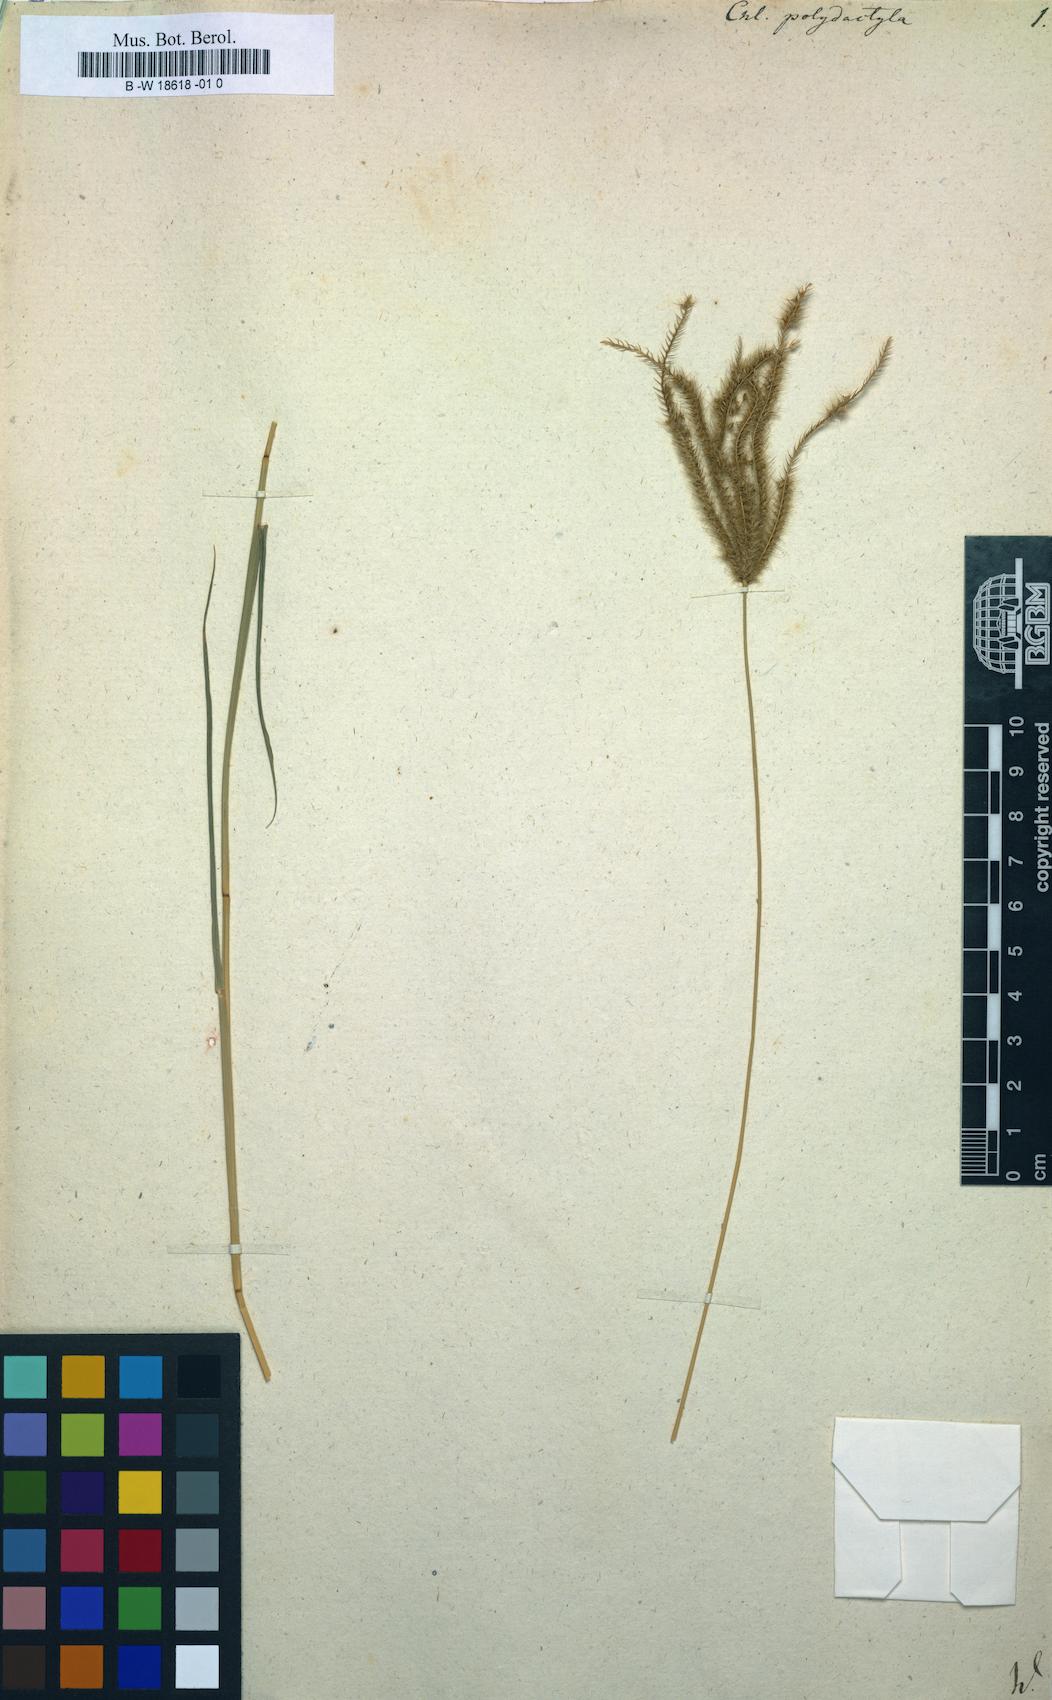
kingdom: Plantae
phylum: Tracheophyta
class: Liliopsida
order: Poales
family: Poaceae
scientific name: Poaceae
